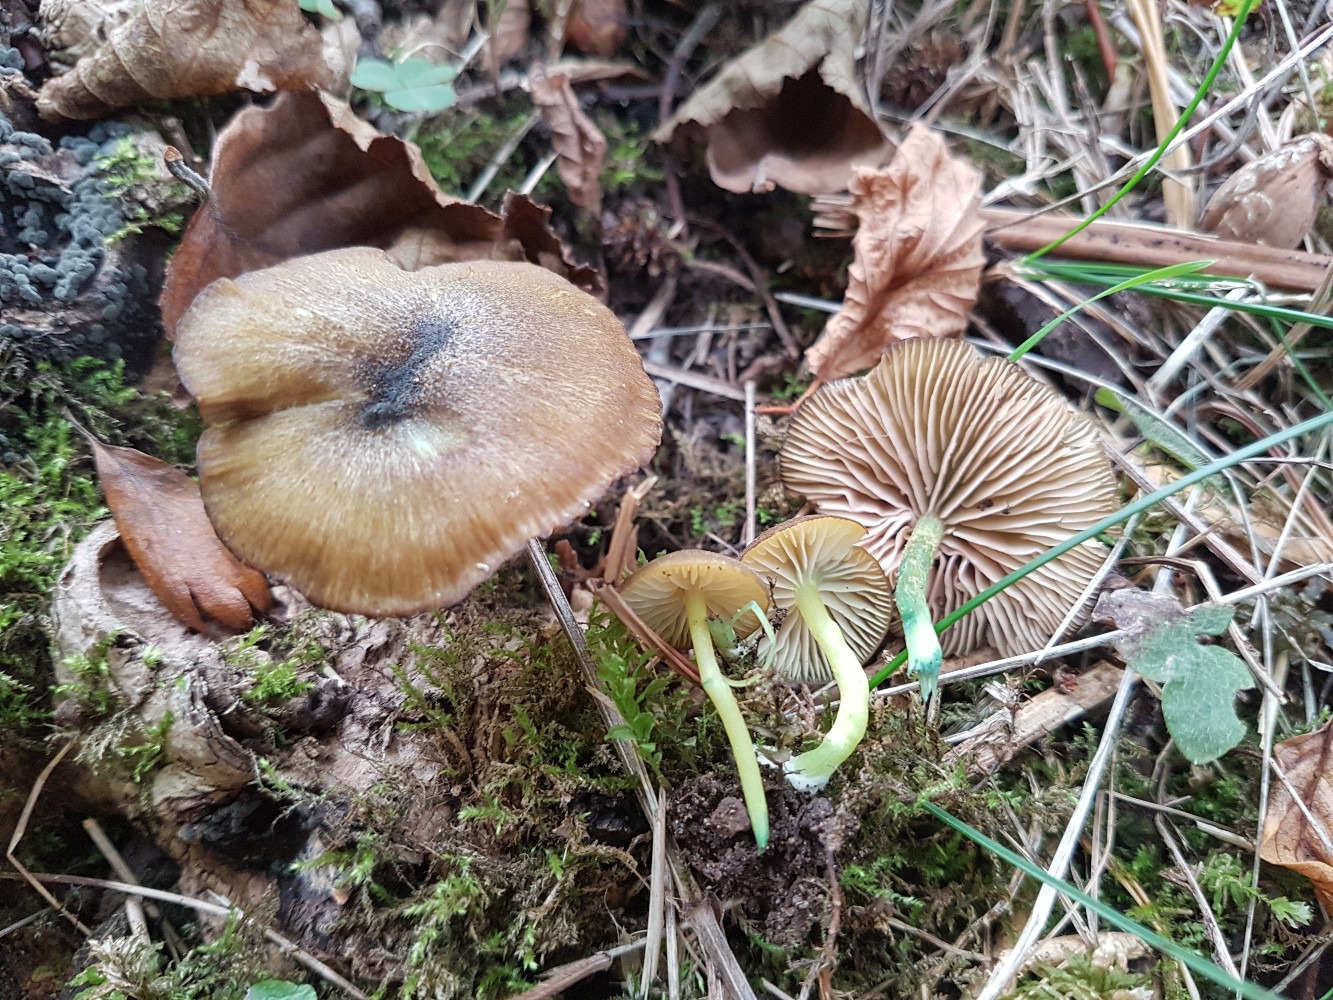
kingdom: Fungi
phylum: Basidiomycota
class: Agaricomycetes
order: Agaricales
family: Entolomataceae
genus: Entoloma
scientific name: Entoloma incanum
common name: grøngul rødblad
